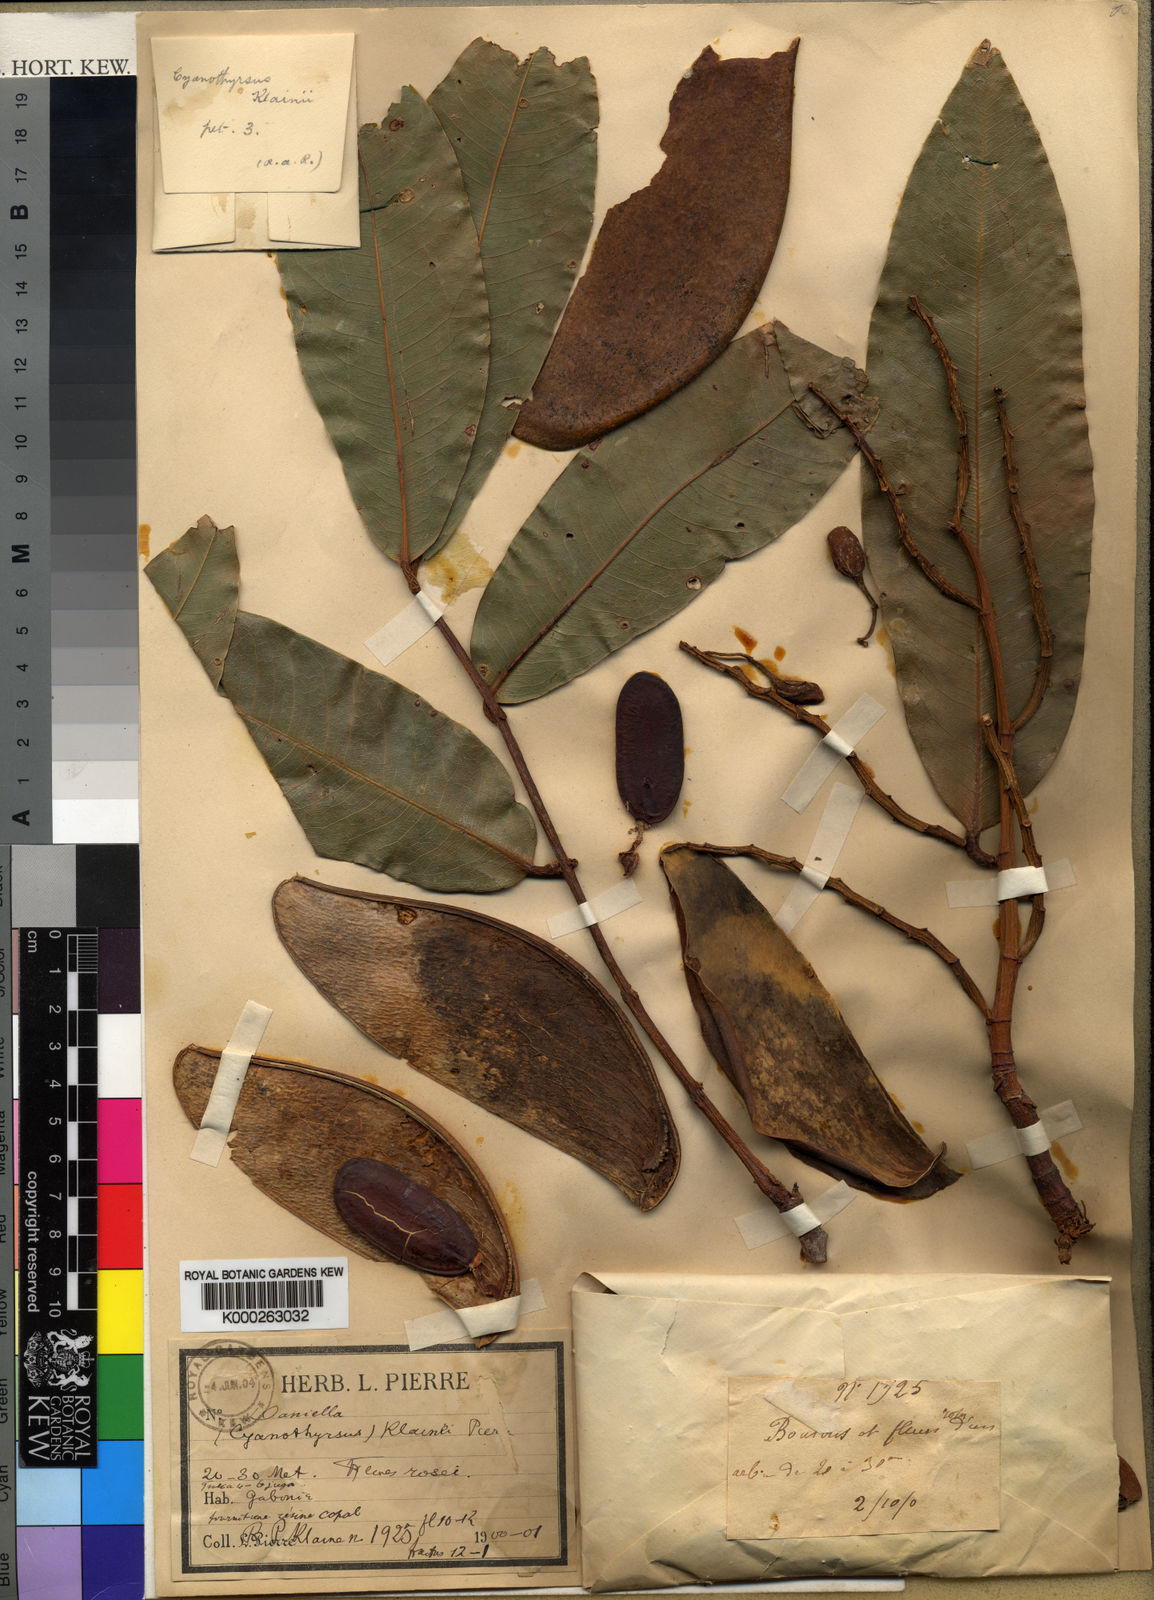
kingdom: Plantae
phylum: Tracheophyta
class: Magnoliopsida
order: Fabales
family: Fabaceae
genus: Daniellia
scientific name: Daniellia
